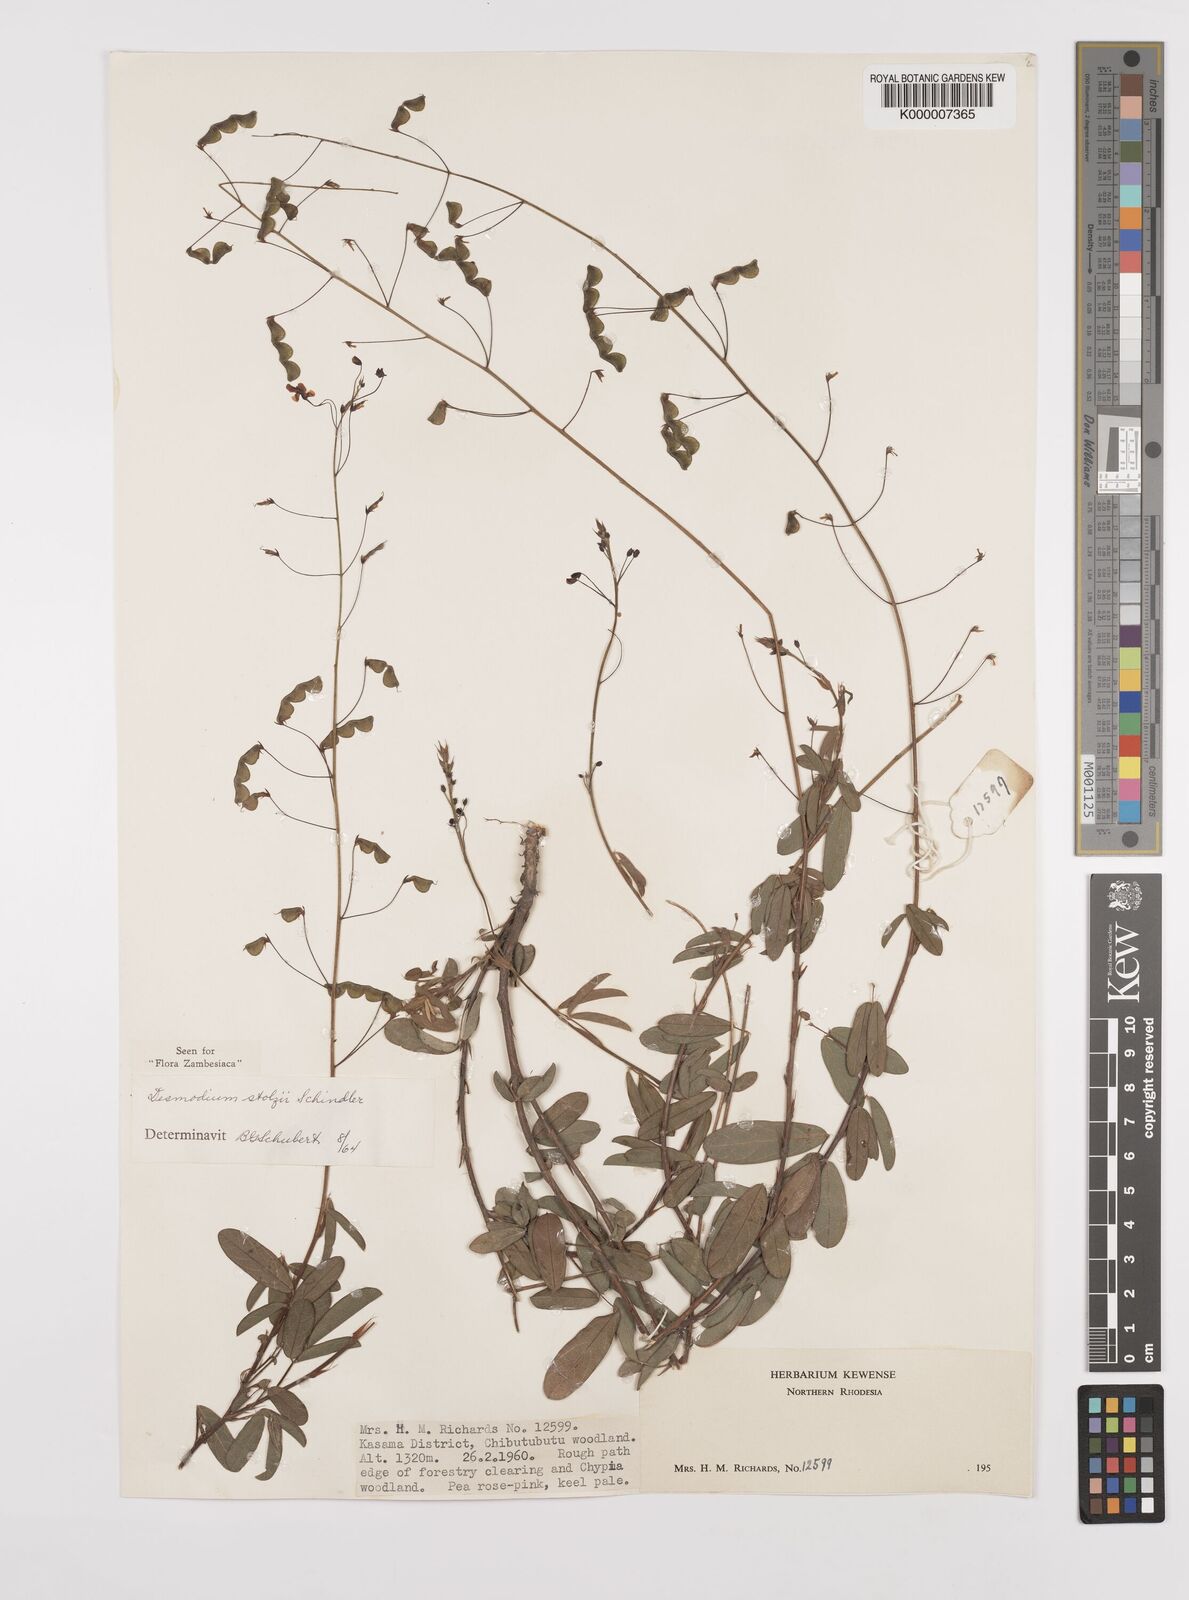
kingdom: Plantae
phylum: Tracheophyta
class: Magnoliopsida
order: Fabales
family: Fabaceae
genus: Grona
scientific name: Grona stolzii
